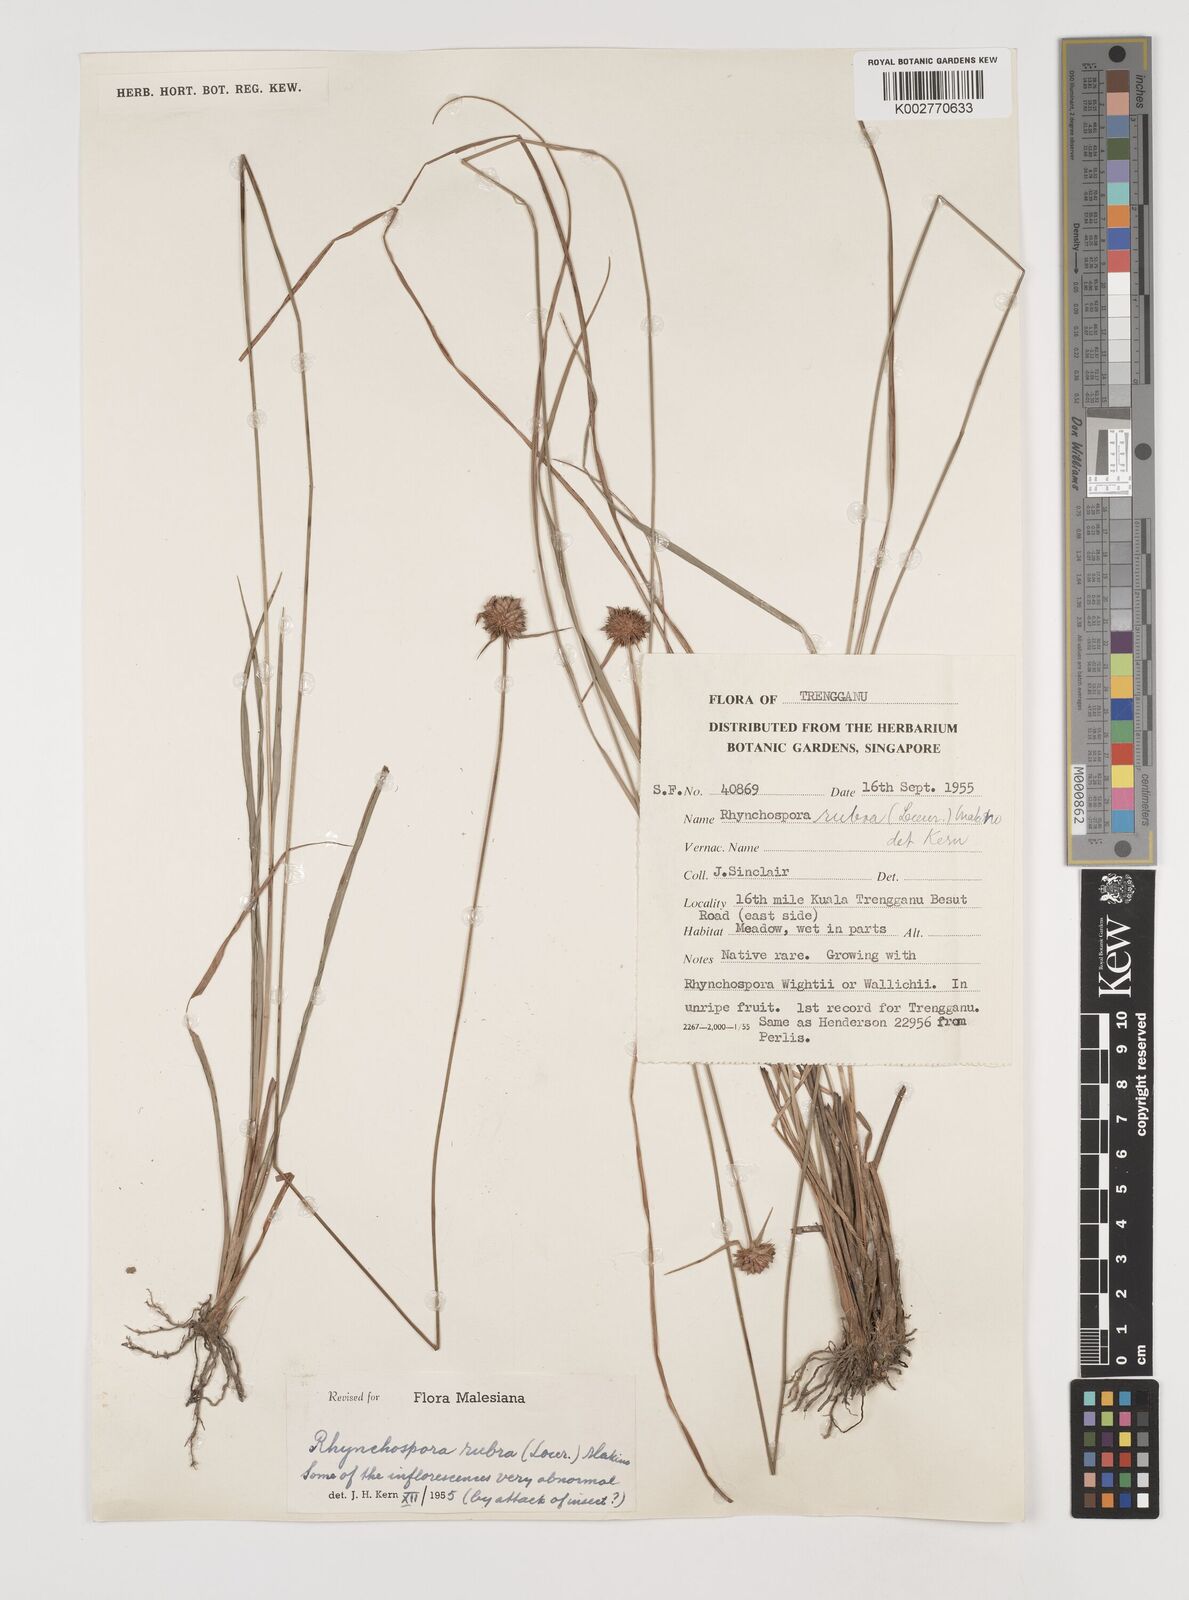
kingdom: Plantae
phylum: Tracheophyta
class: Liliopsida
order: Poales
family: Cyperaceae
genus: Rhynchospora
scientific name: Rhynchospora rubra
